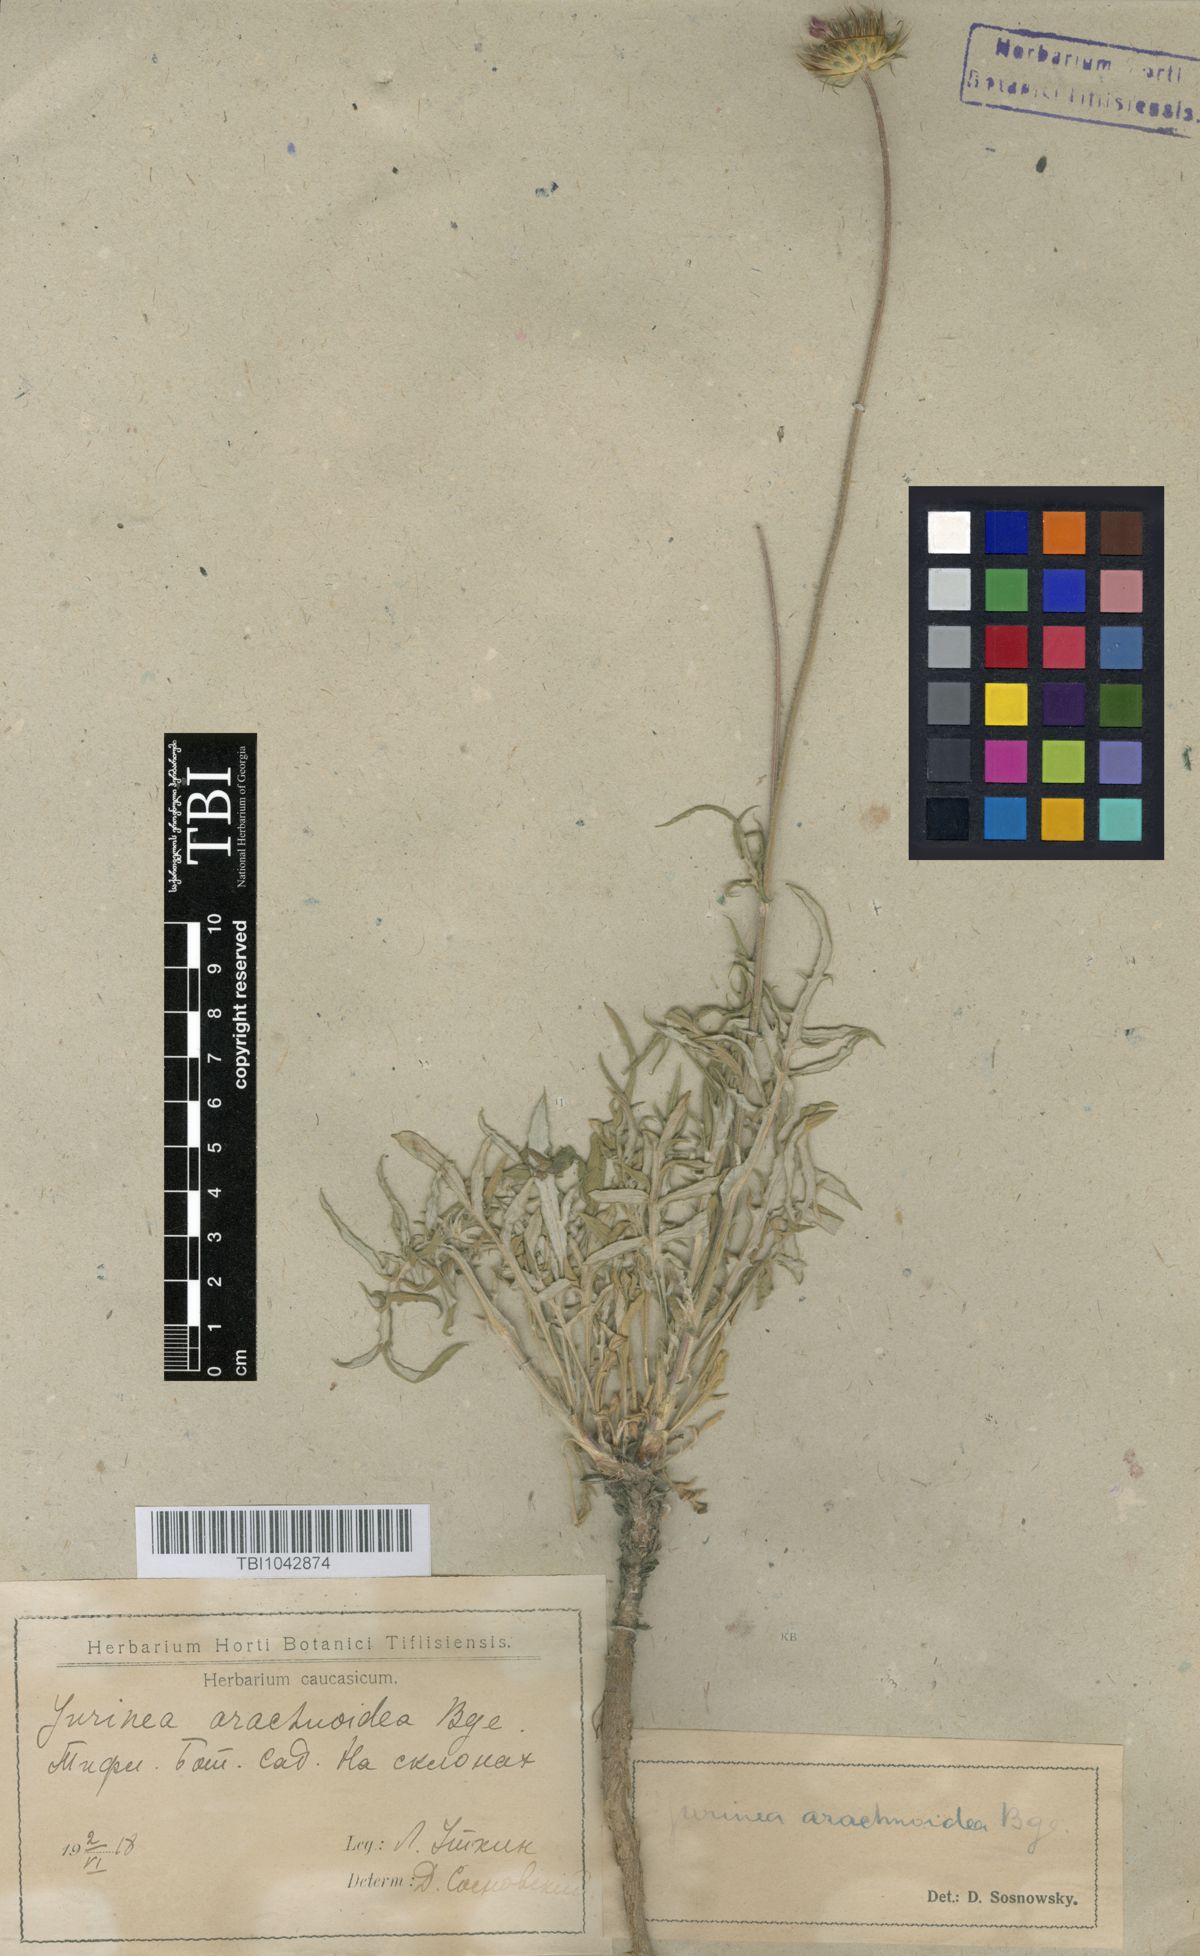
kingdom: Plantae
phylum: Tracheophyta
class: Magnoliopsida
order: Asterales
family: Asteraceae
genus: Jurinea
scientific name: Jurinea blanda
